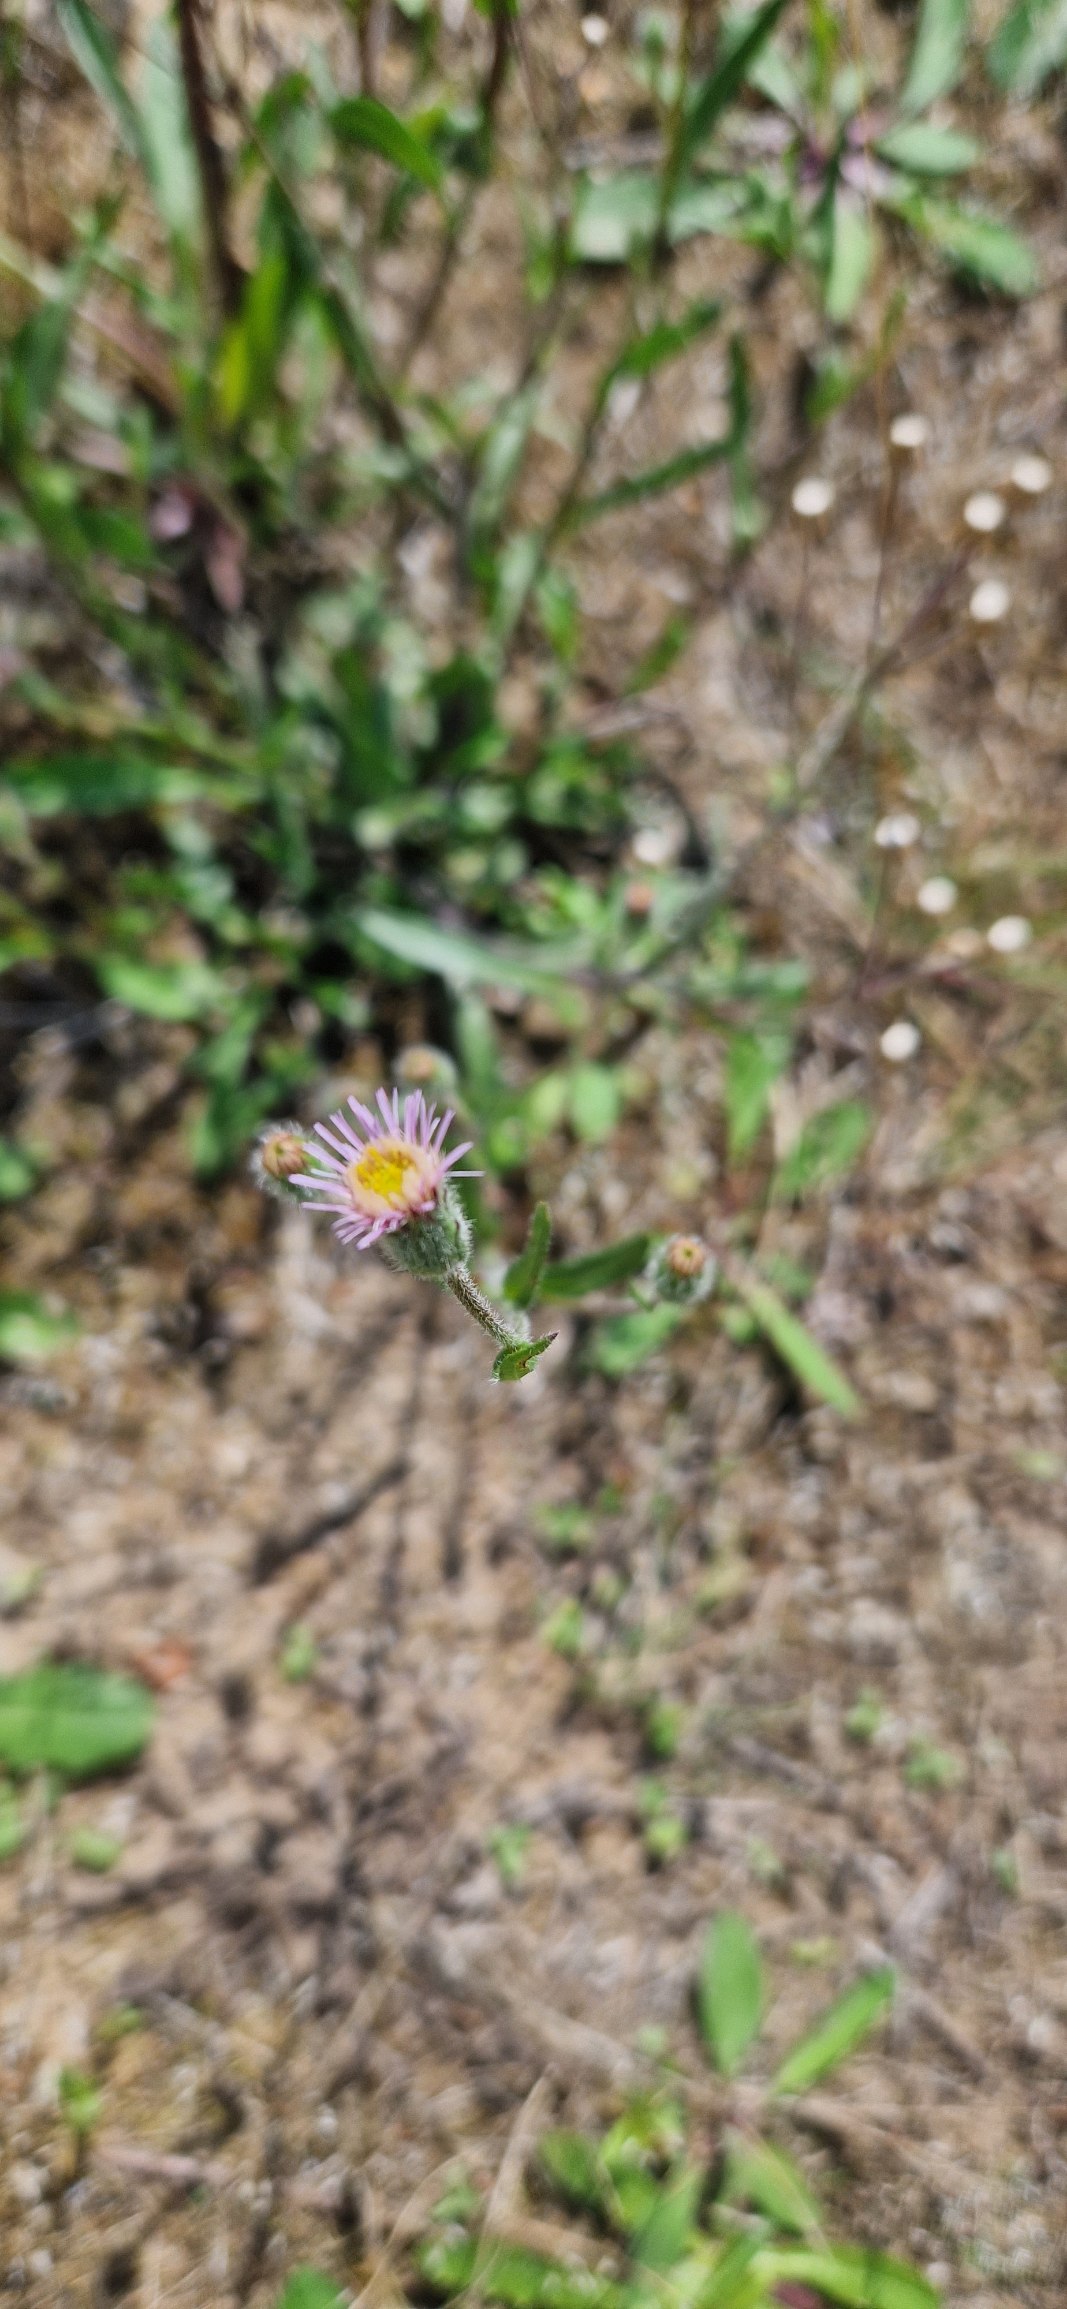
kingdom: Plantae
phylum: Tracheophyta
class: Magnoliopsida
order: Asterales
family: Asteraceae
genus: Erigeron
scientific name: Erigeron acris
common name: Bitter bakkestjerne
